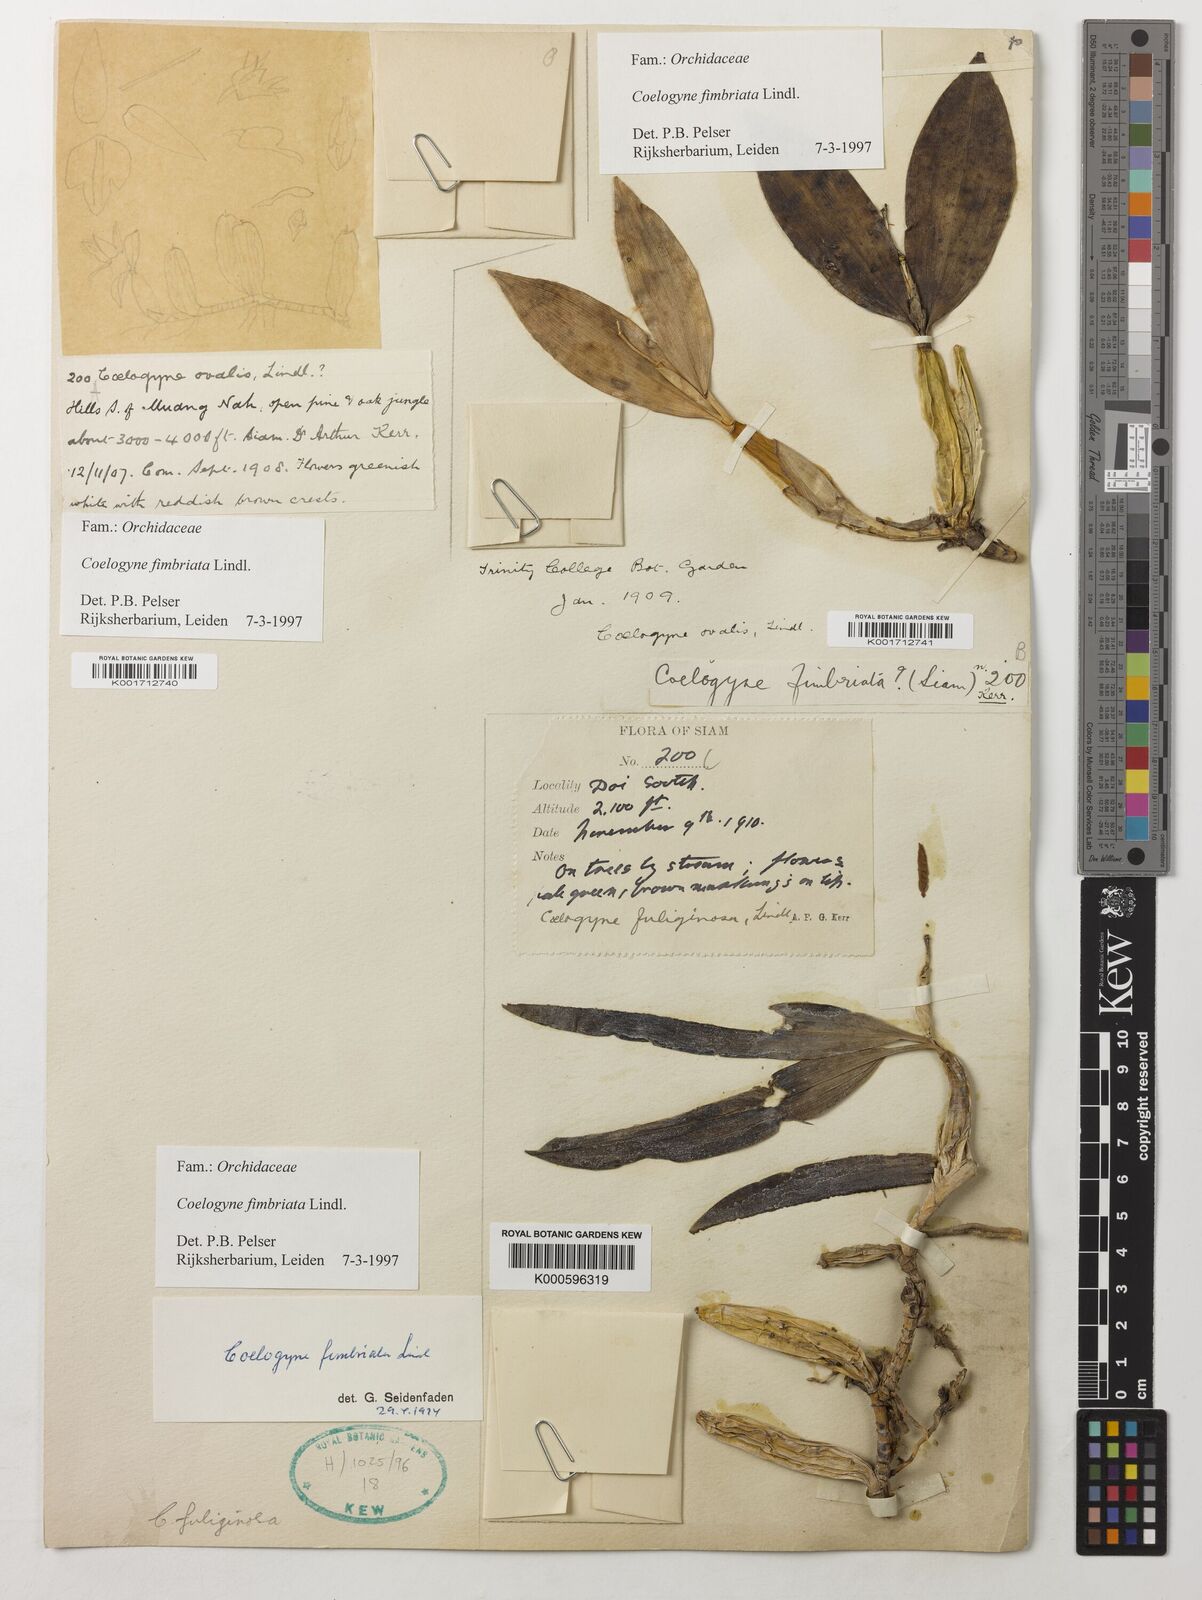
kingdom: Plantae
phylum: Tracheophyta
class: Liliopsida
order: Asparagales
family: Orchidaceae
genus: Coelogyne
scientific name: Coelogyne fimbriata
